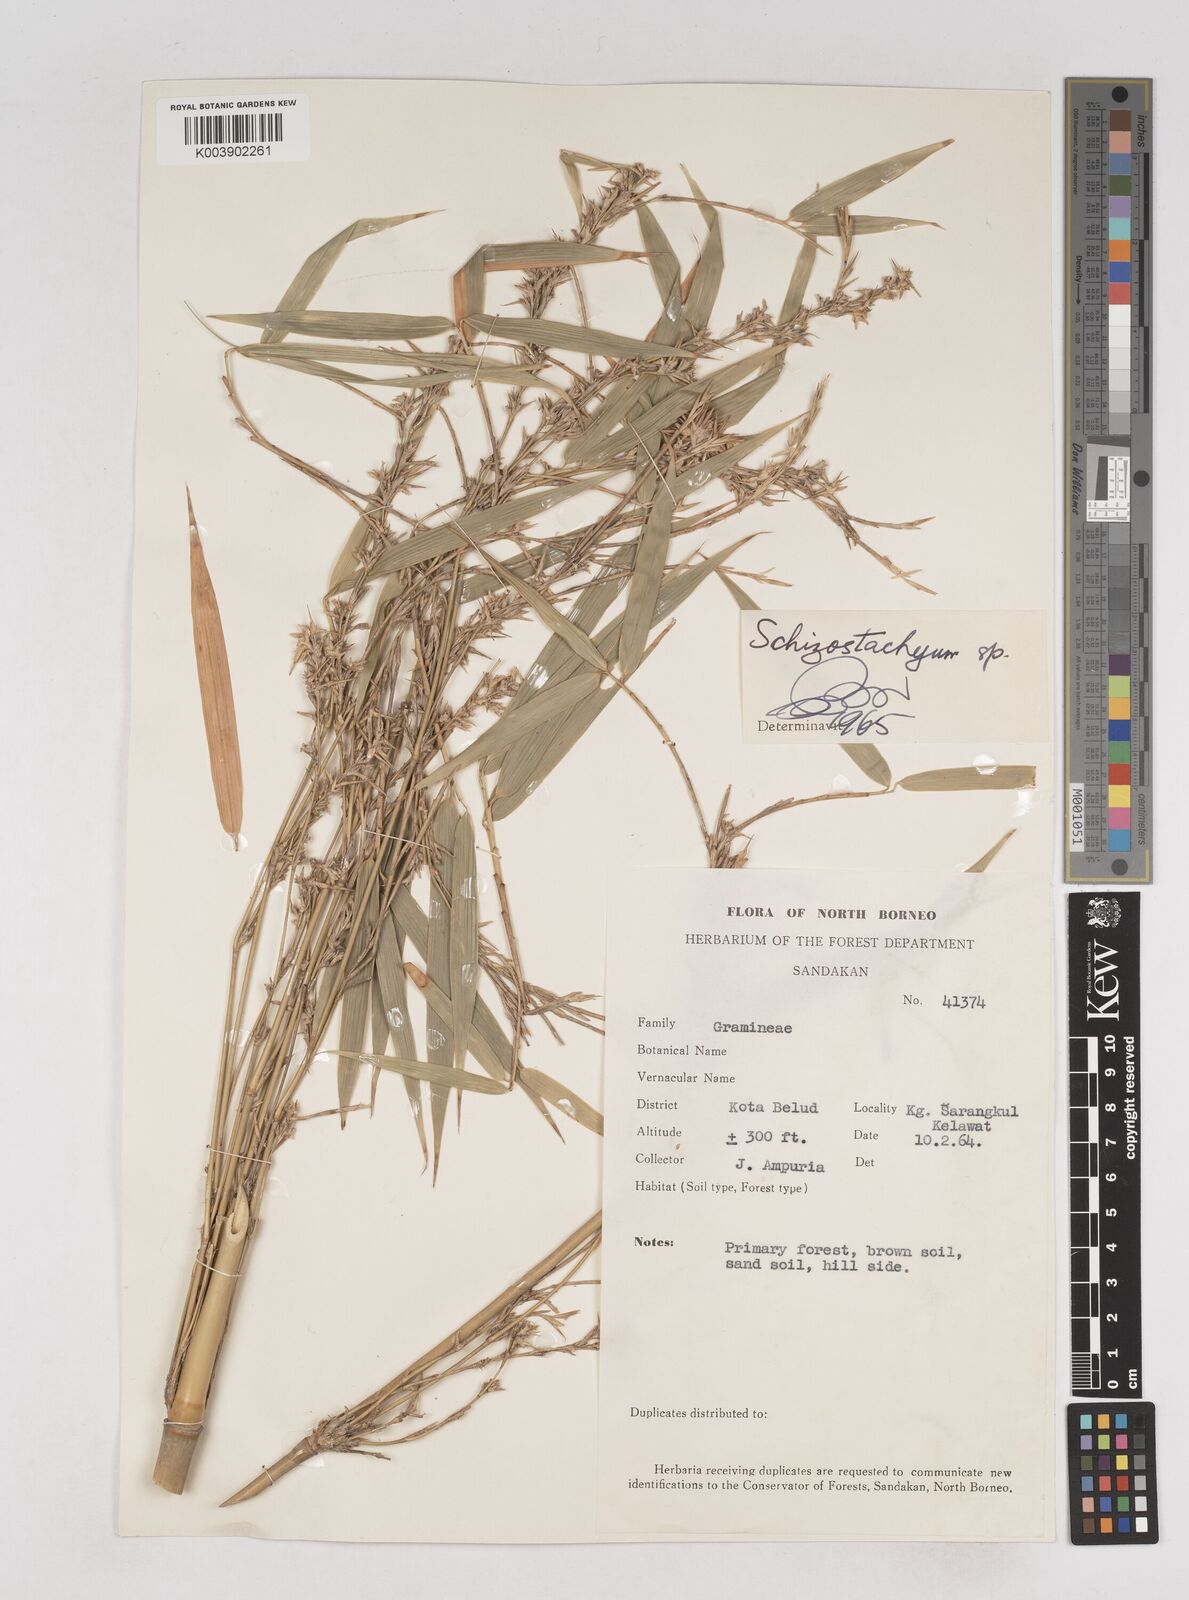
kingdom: Plantae
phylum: Tracheophyta
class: Liliopsida
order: Poales
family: Poaceae
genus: Schizostachyum
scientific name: Schizostachyum lima
